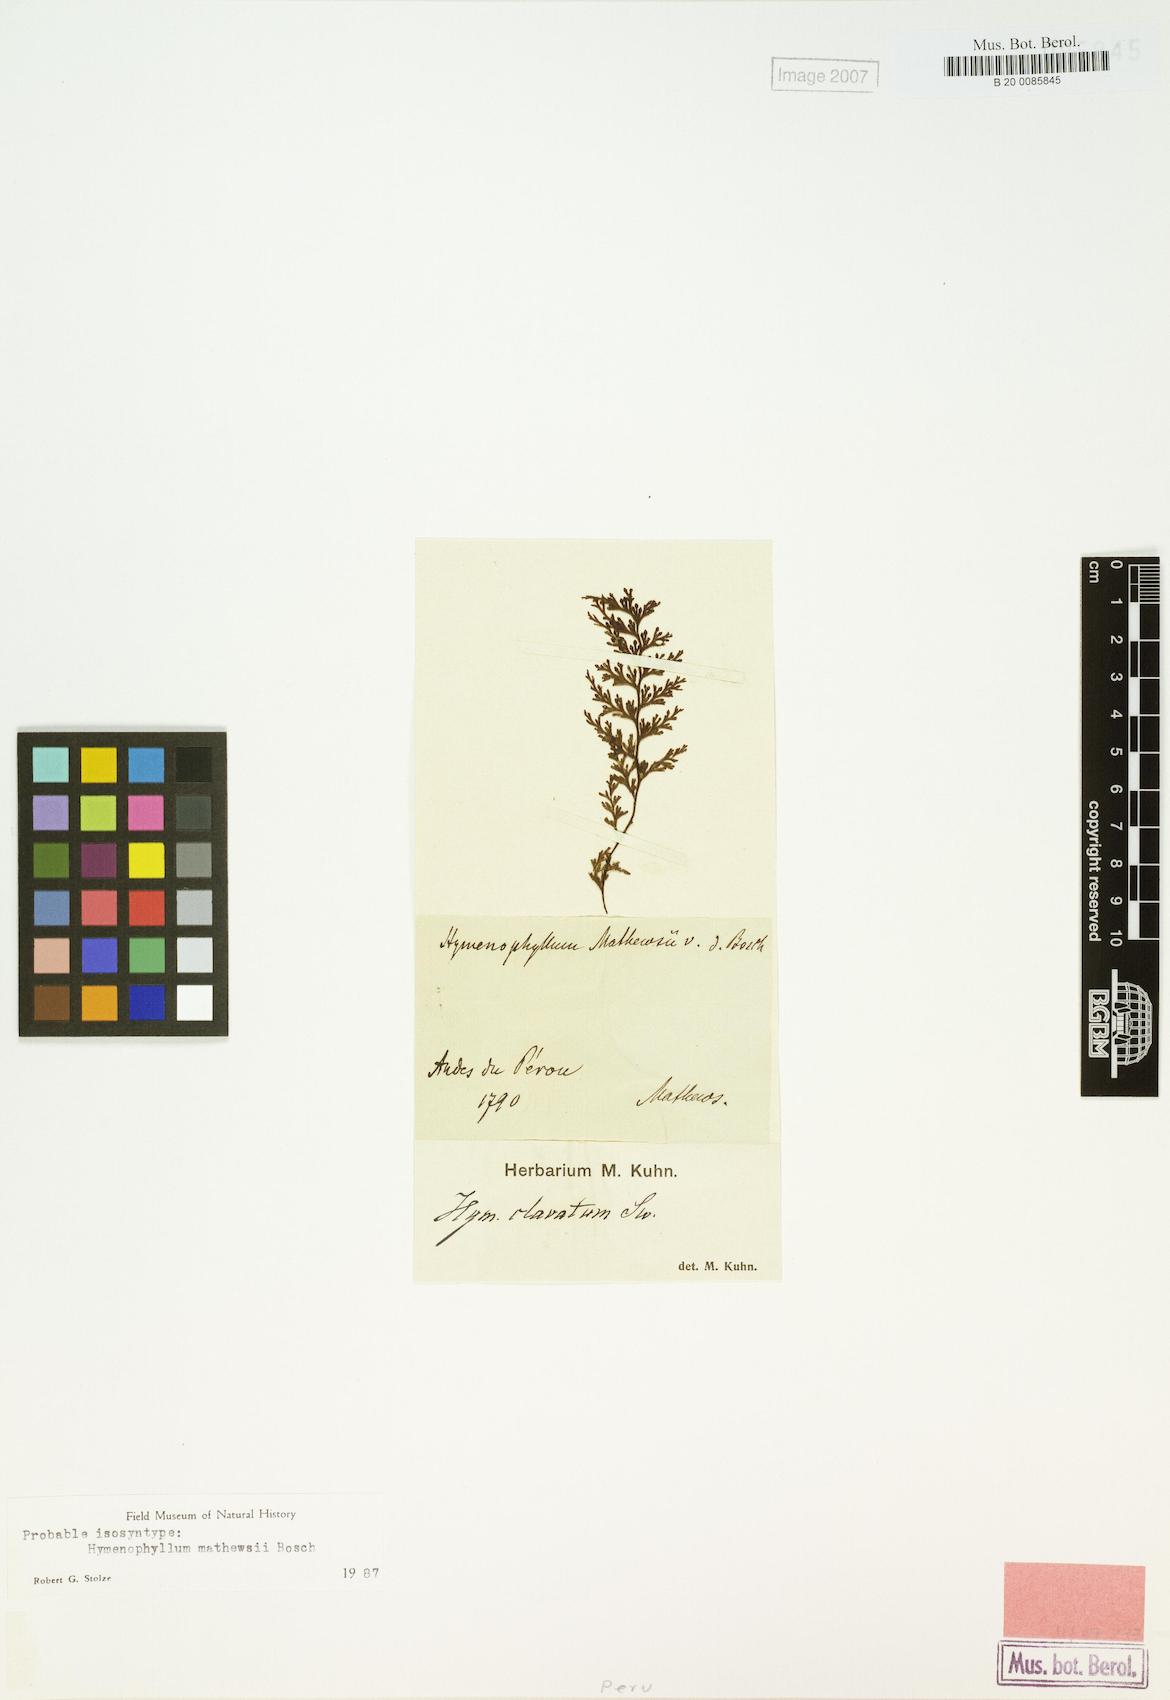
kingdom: Plantae
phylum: Tracheophyta
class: Polypodiopsida
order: Hymenophyllales
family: Hymenophyllaceae
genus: Hymenophyllum
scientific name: Hymenophyllum polyanthos
